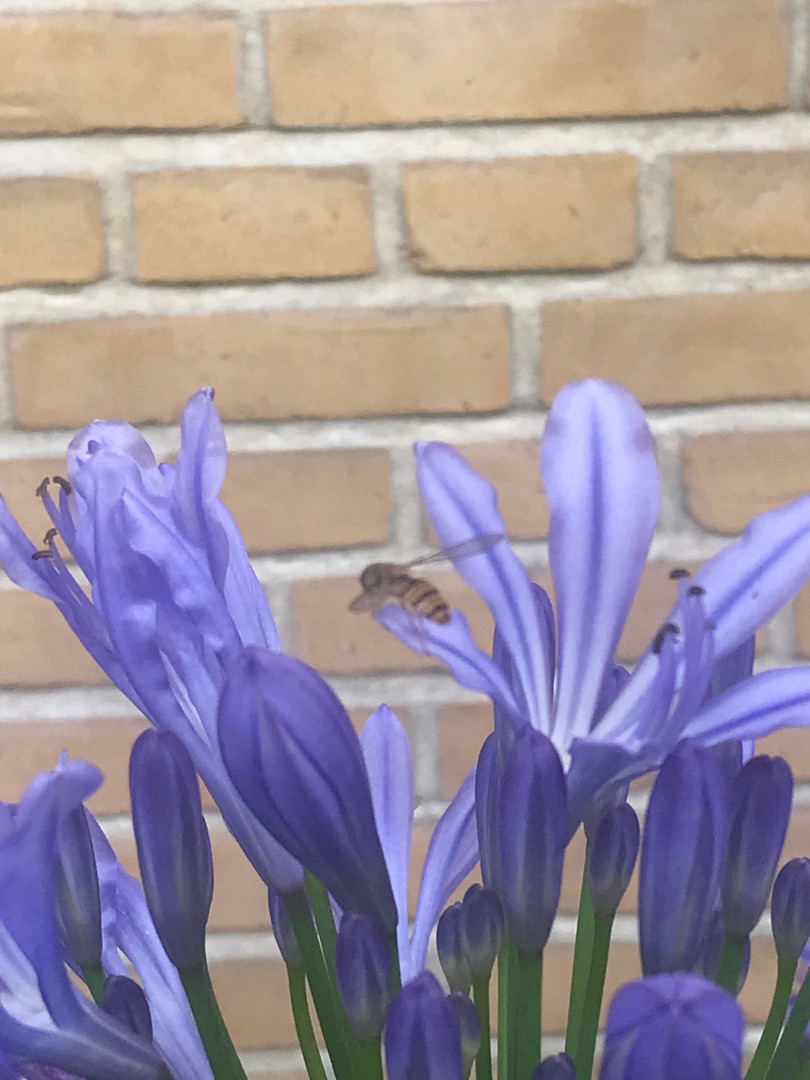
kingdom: Animalia
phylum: Arthropoda
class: Insecta
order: Diptera
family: Syrphidae
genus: Episyrphus
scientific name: Episyrphus balteatus
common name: Dobbeltbåndet svirreflue
